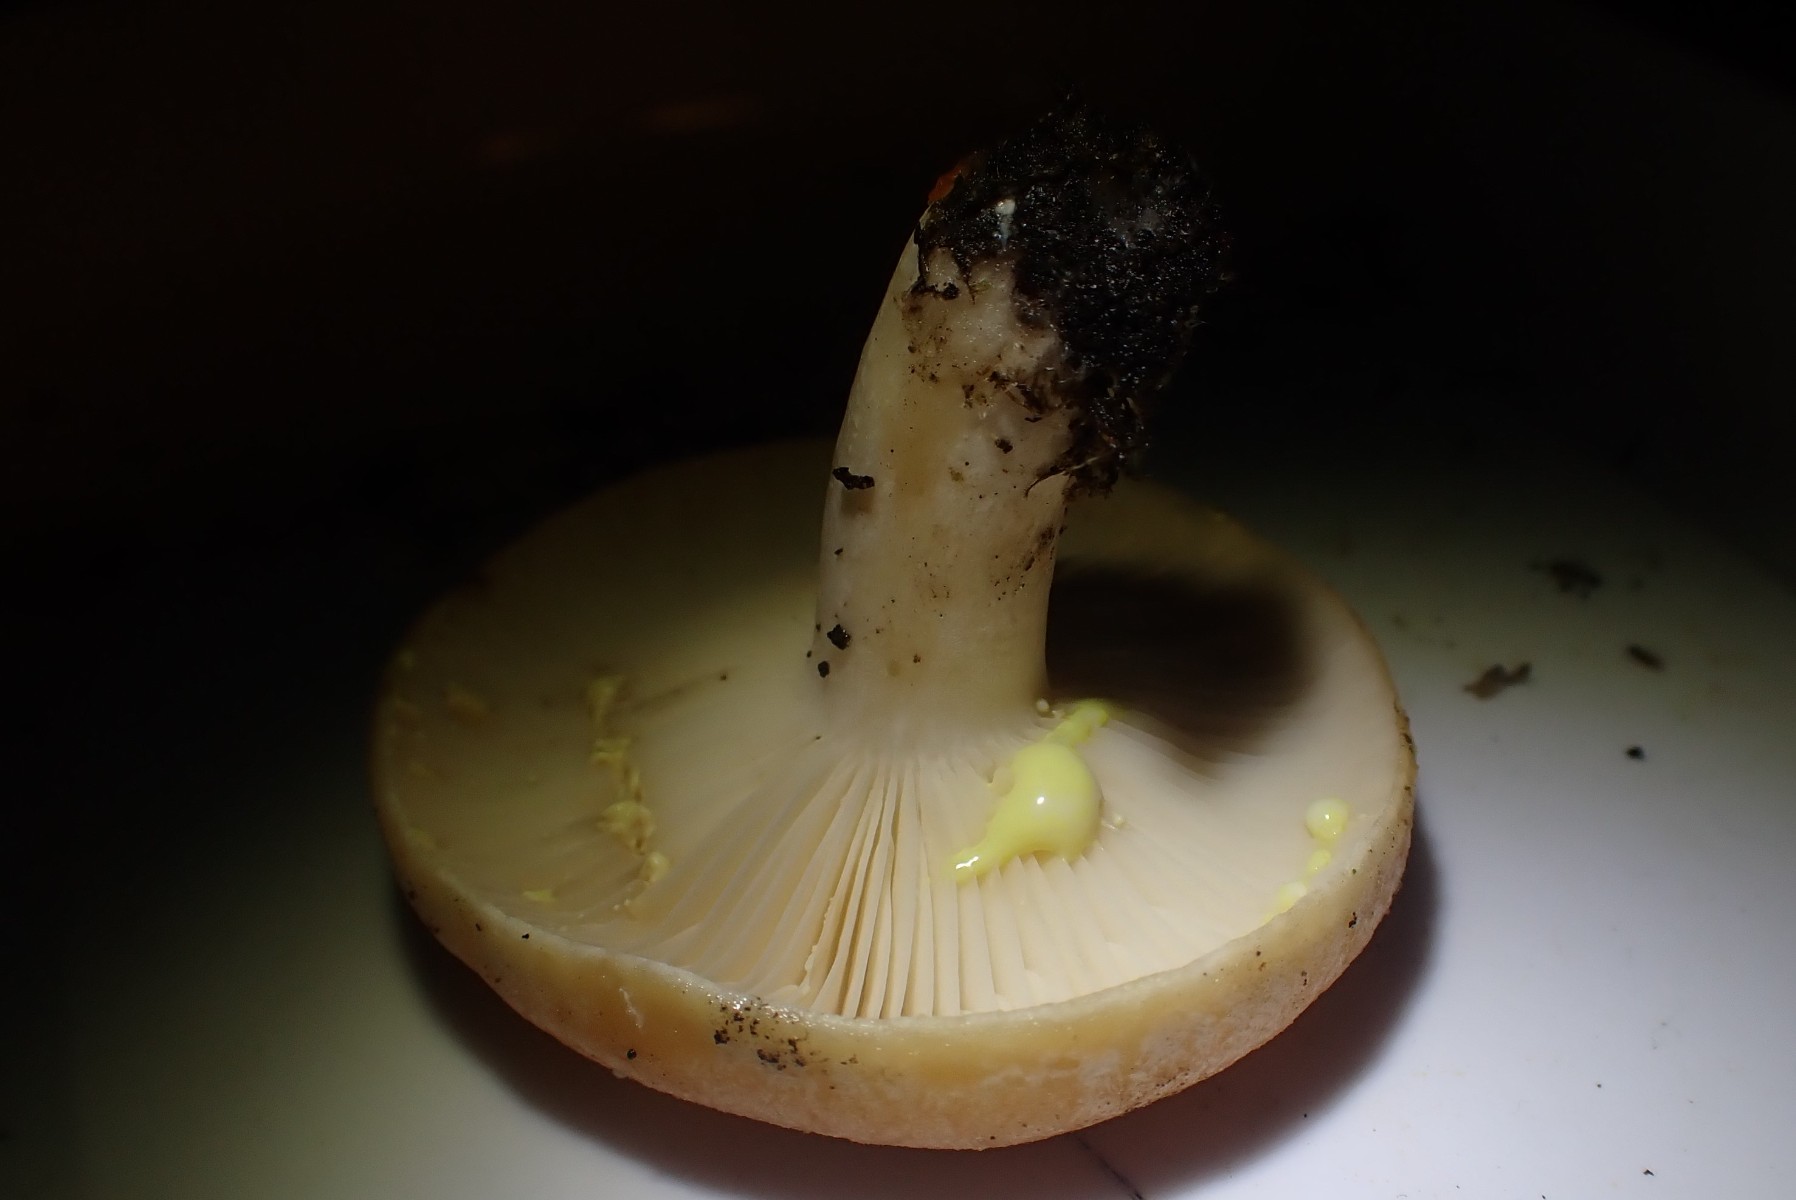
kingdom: Fungi
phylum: Basidiomycota
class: Agaricomycetes
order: Russulales
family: Russulaceae
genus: Lactarius
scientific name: Lactarius chrysorrheus
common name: svovlmælket mælkehat
